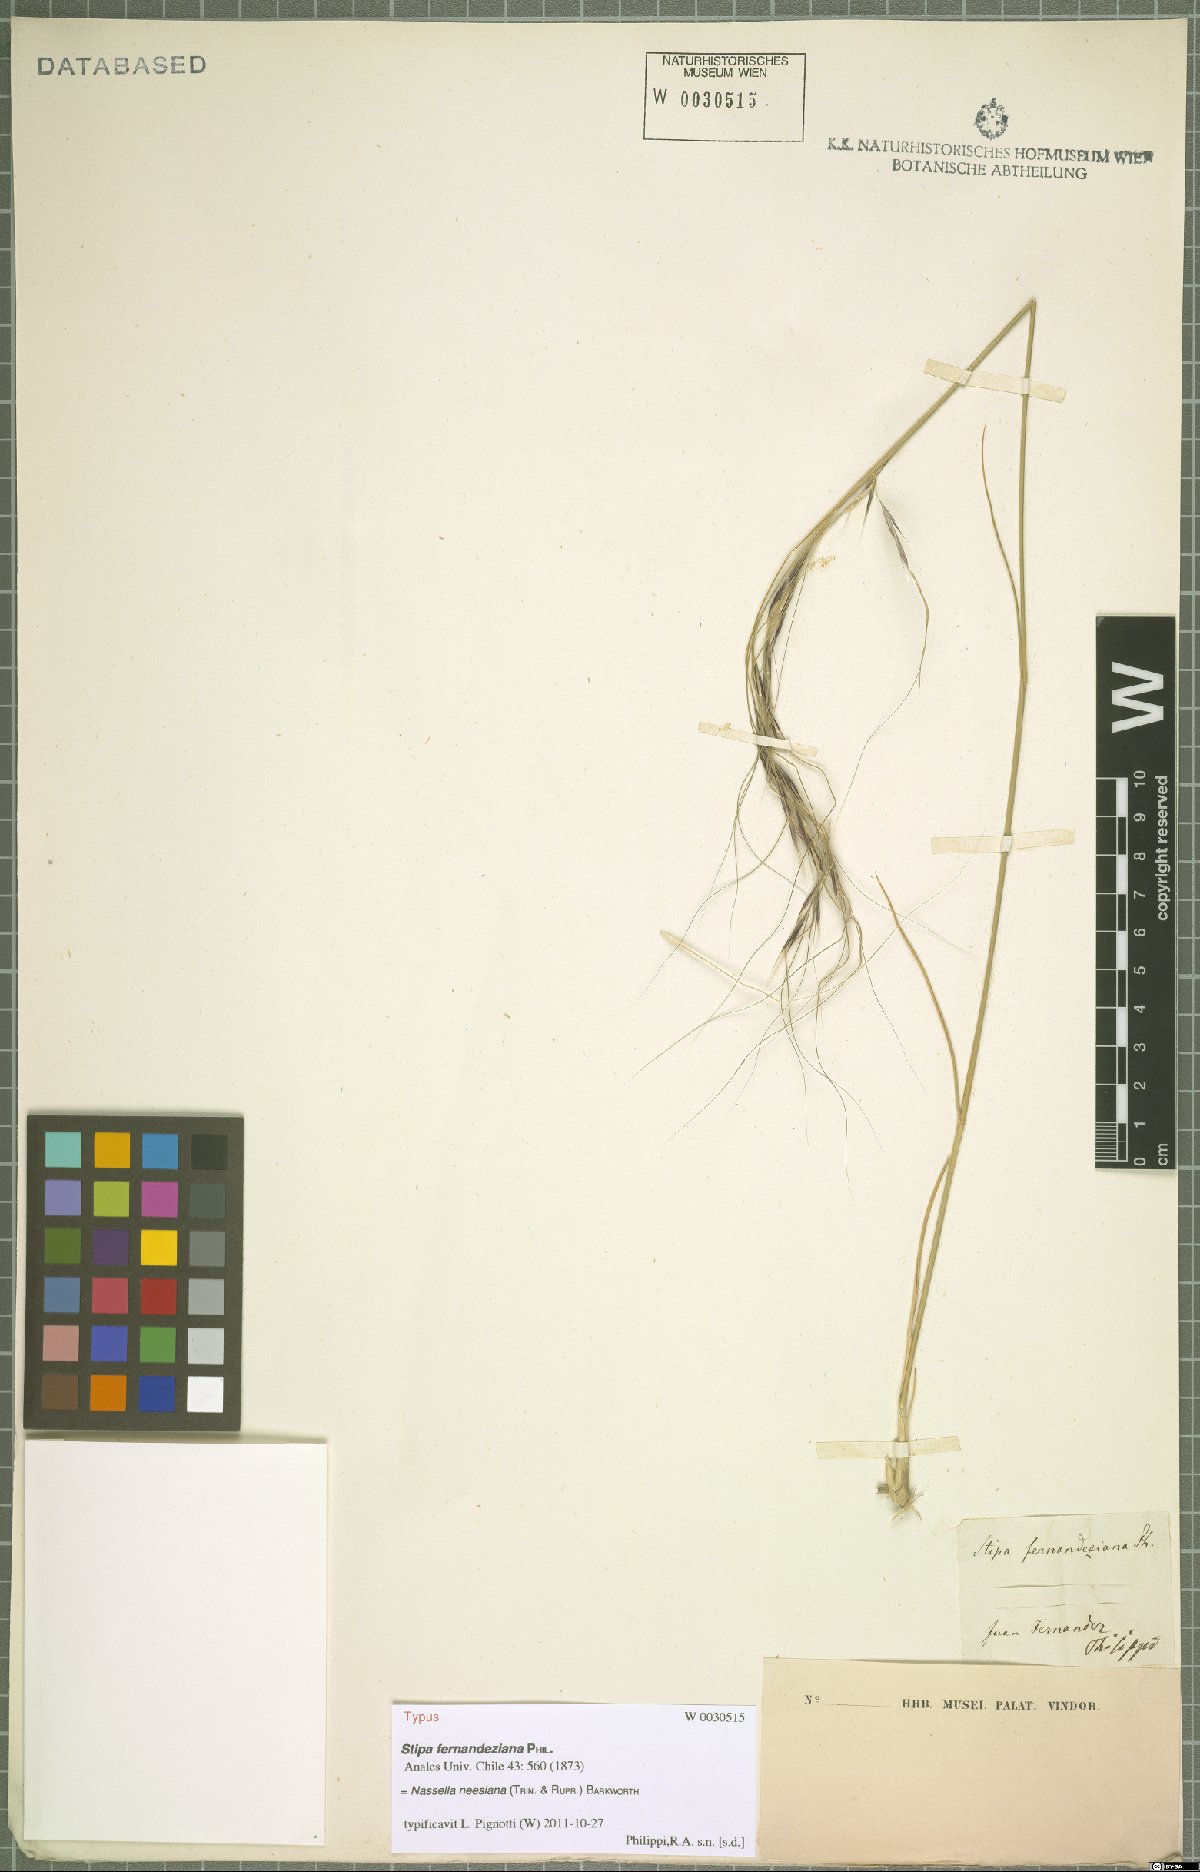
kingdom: Plantae
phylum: Tracheophyta
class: Liliopsida
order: Poales
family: Poaceae
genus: Nassella
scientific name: Nassella neesiana
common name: American needle-grass
